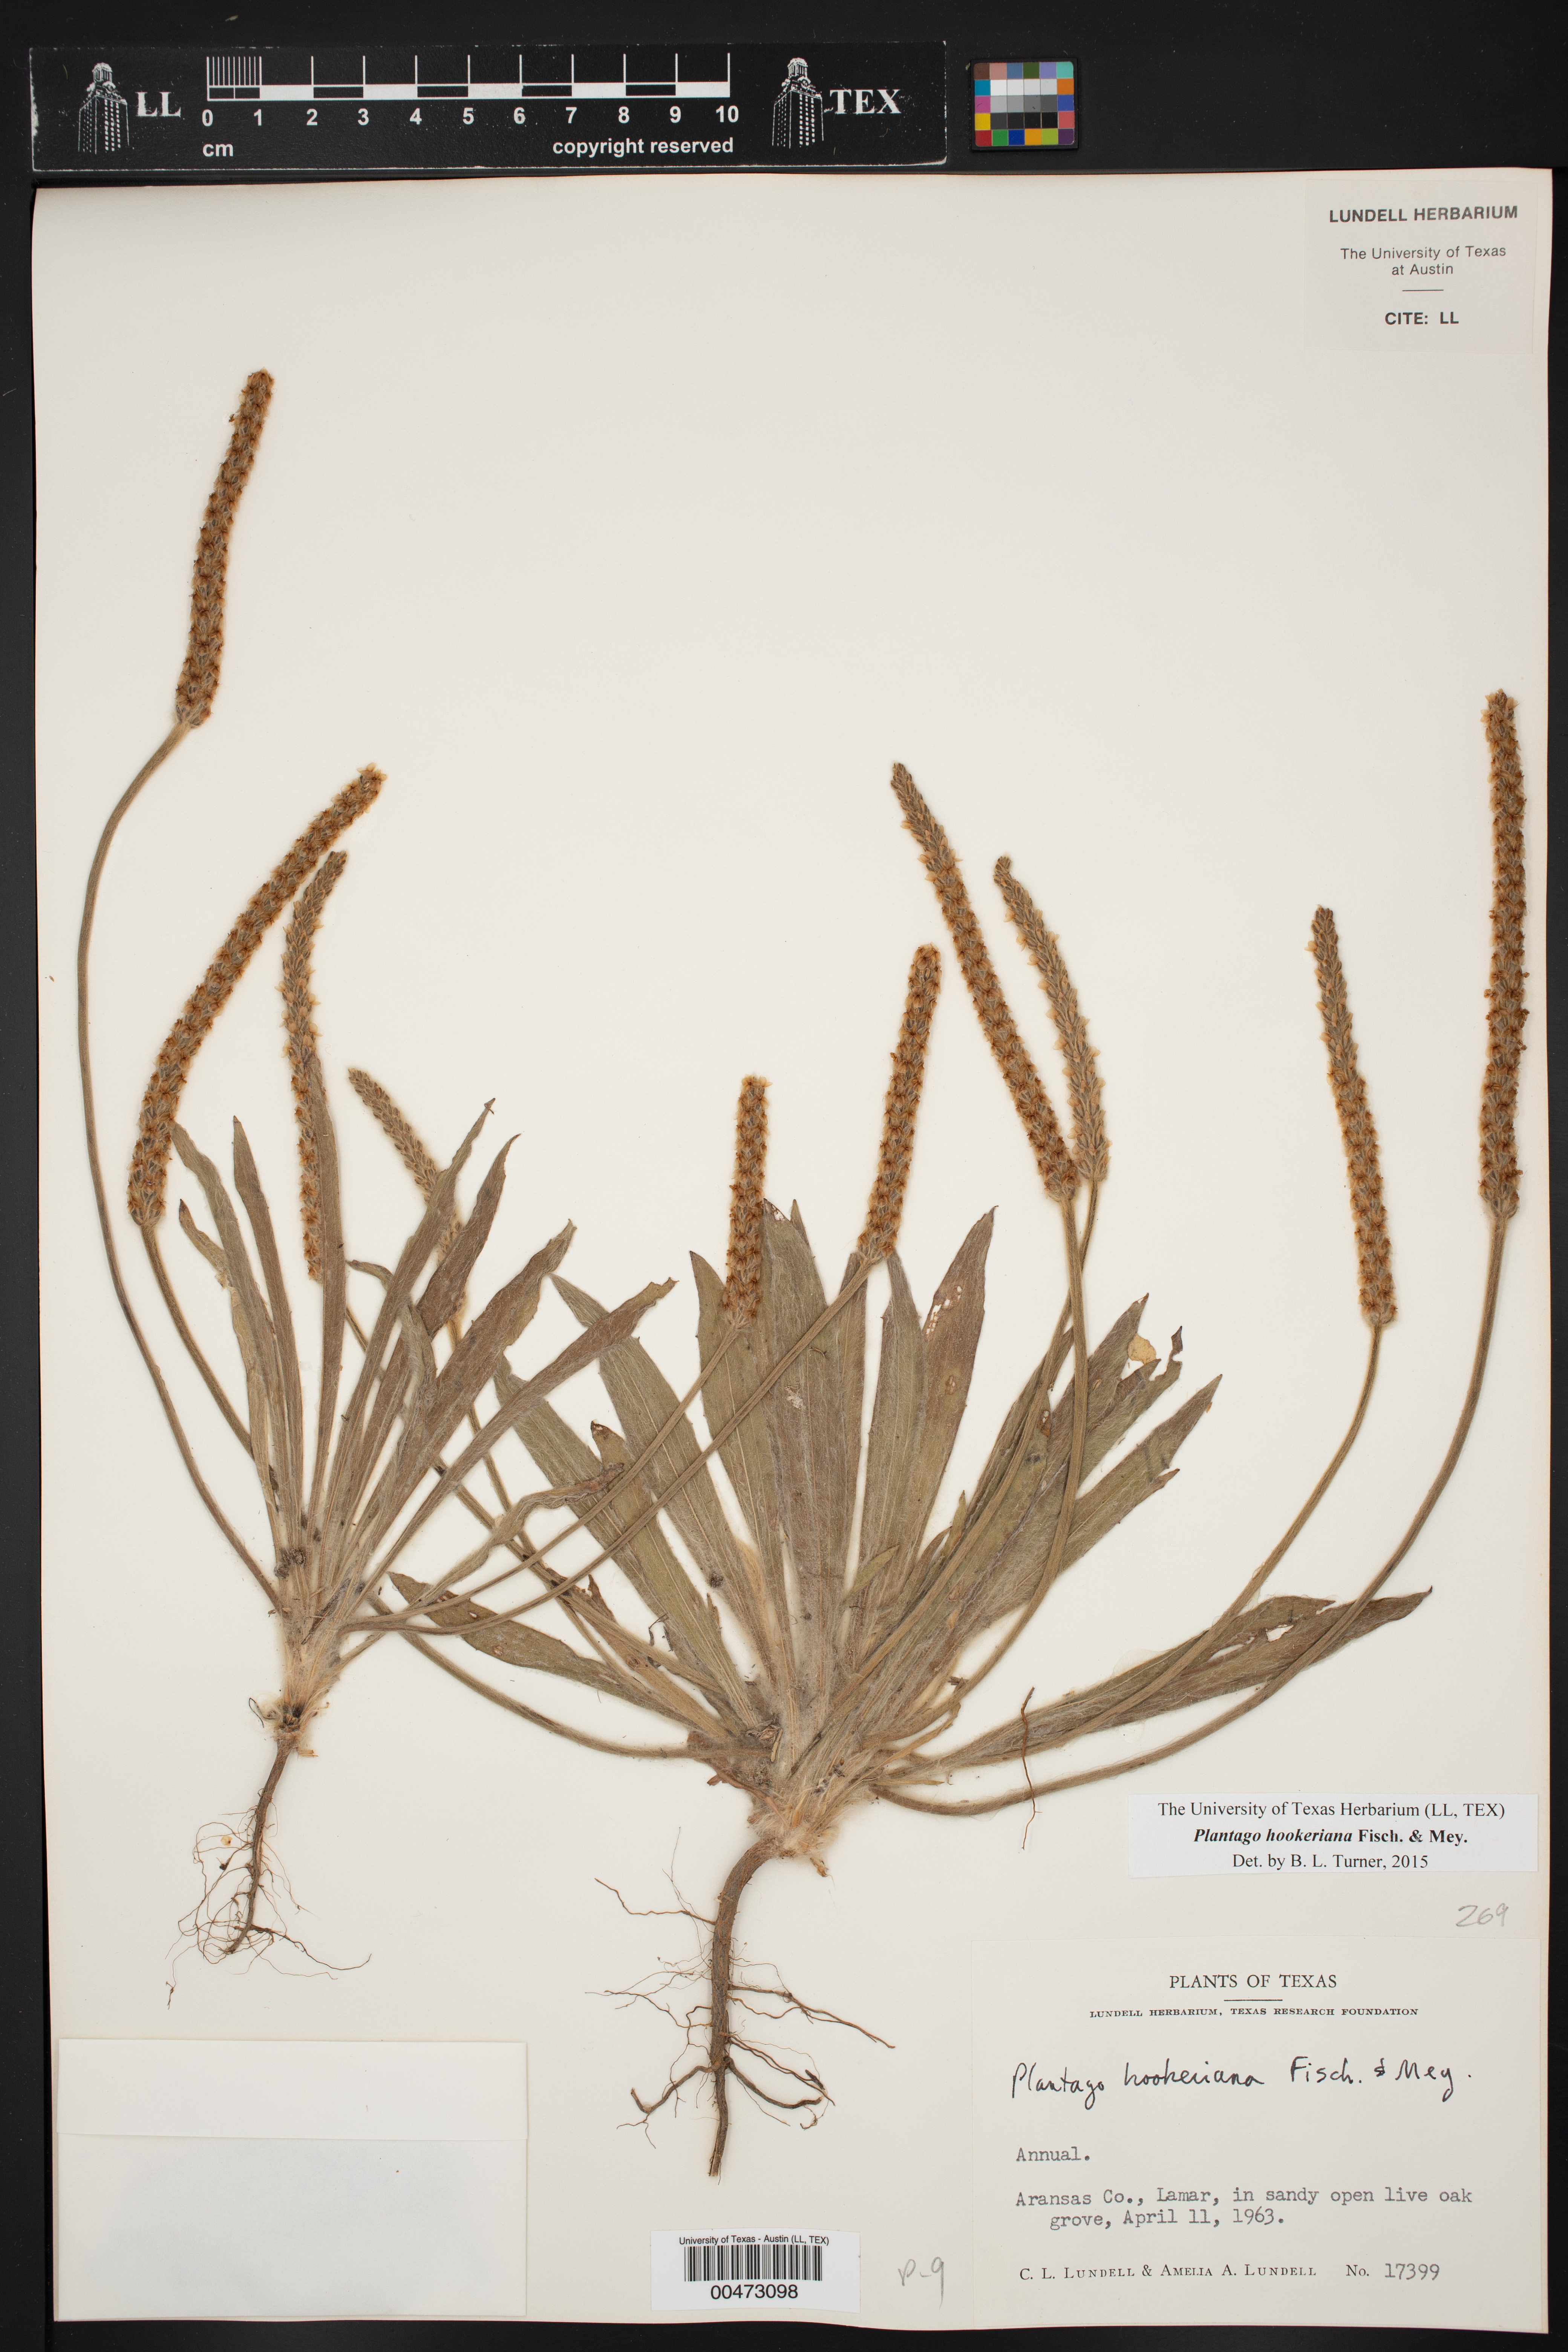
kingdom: Plantae
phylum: Tracheophyta
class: Magnoliopsida
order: Lamiales
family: Plantaginaceae
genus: Plantago
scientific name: Plantago hookeriana
